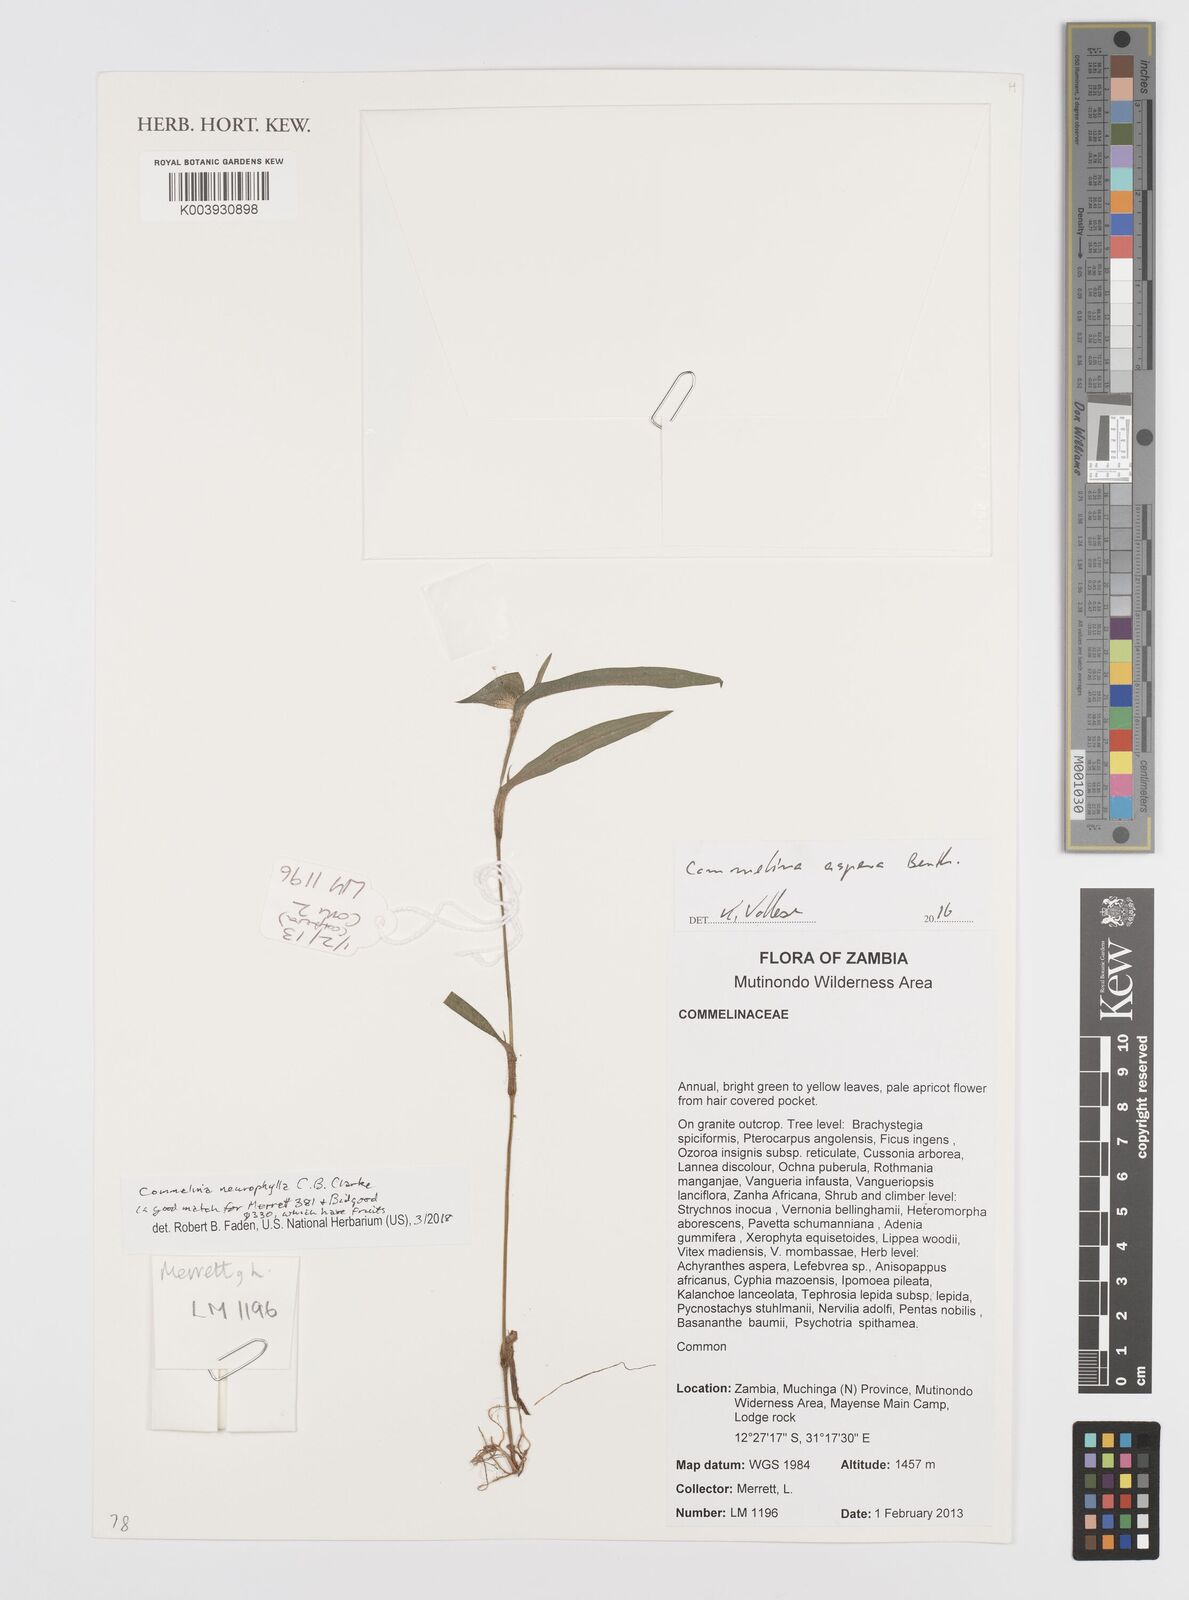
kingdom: Plantae
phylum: Tracheophyta
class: Liliopsida
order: Commelinales
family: Commelinaceae
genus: Commelina
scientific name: Commelina neurophylla
